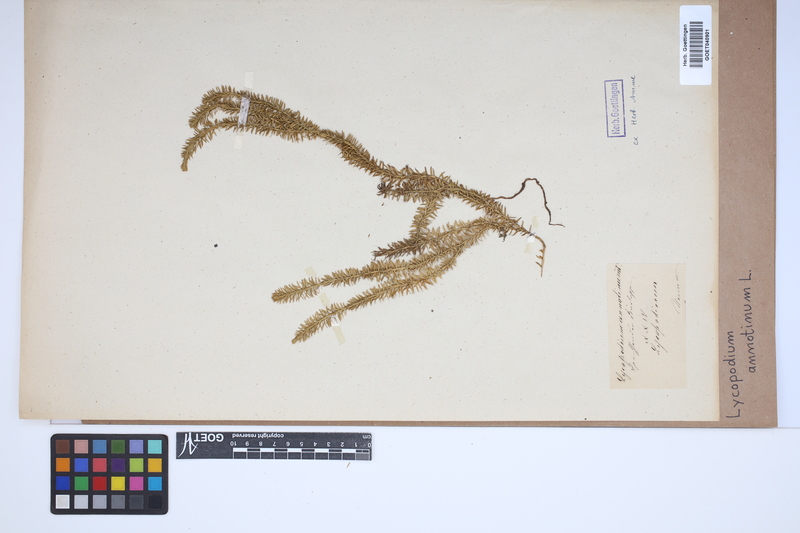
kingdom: Plantae
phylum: Tracheophyta
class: Lycopodiopsida
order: Lycopodiales
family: Lycopodiaceae
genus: Spinulum
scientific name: Spinulum annotinum
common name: Interrupted club-moss
